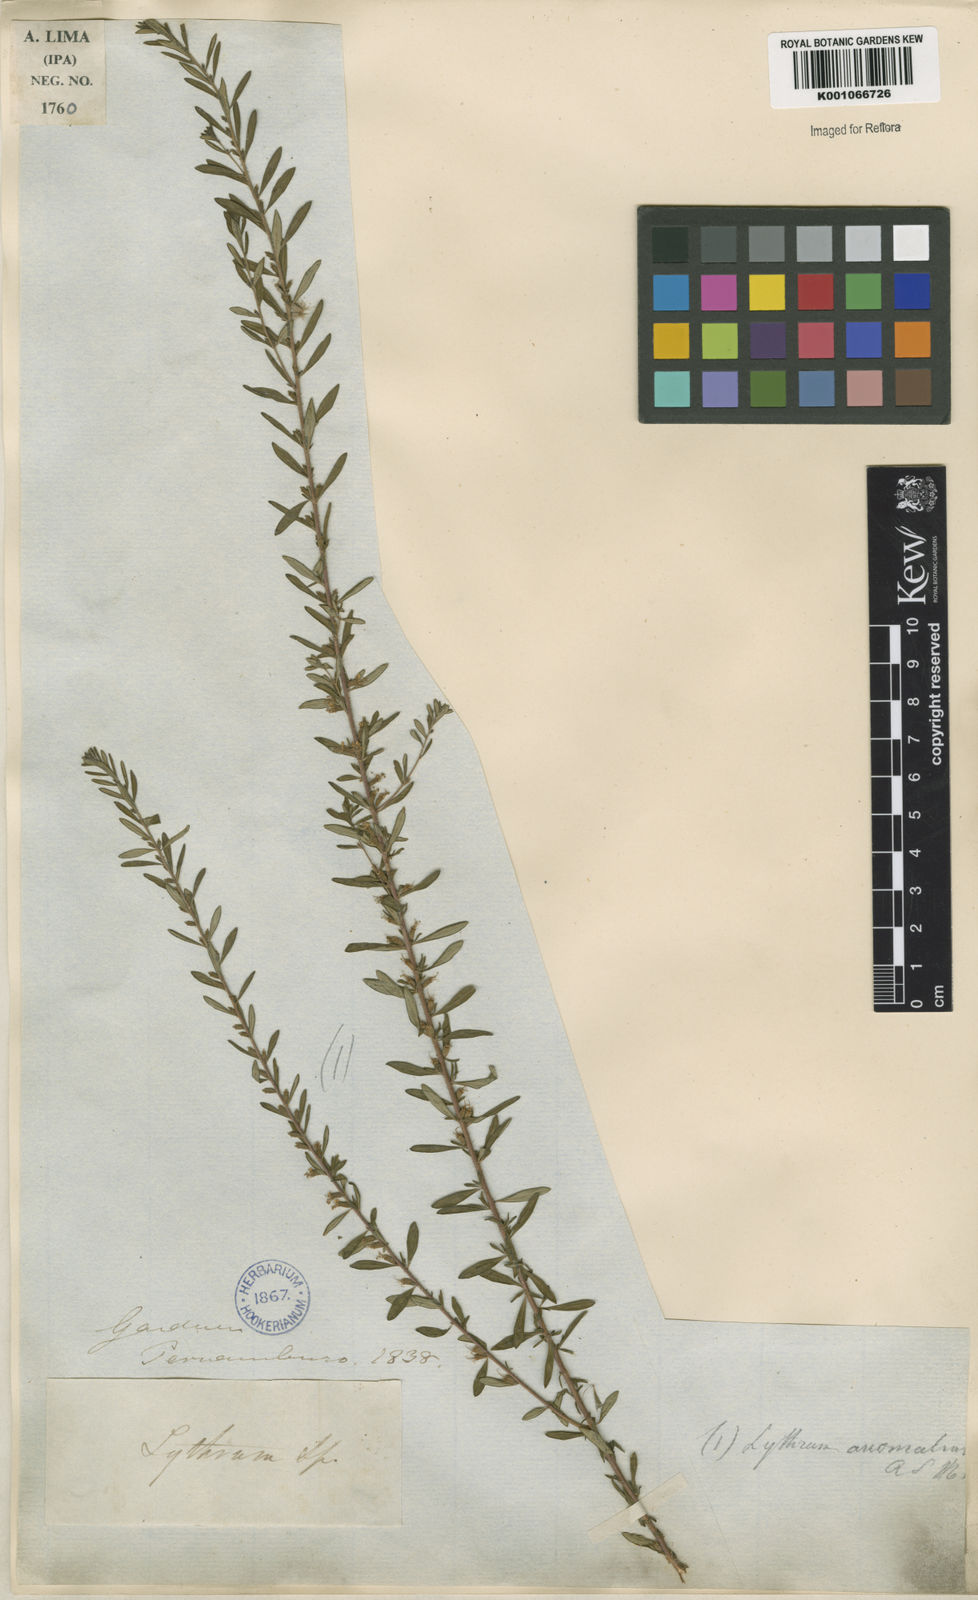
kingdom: Plantae
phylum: Tracheophyta
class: Magnoliopsida
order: Myrtales
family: Lythraceae
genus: Pleurophora
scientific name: Pleurophora anomala
